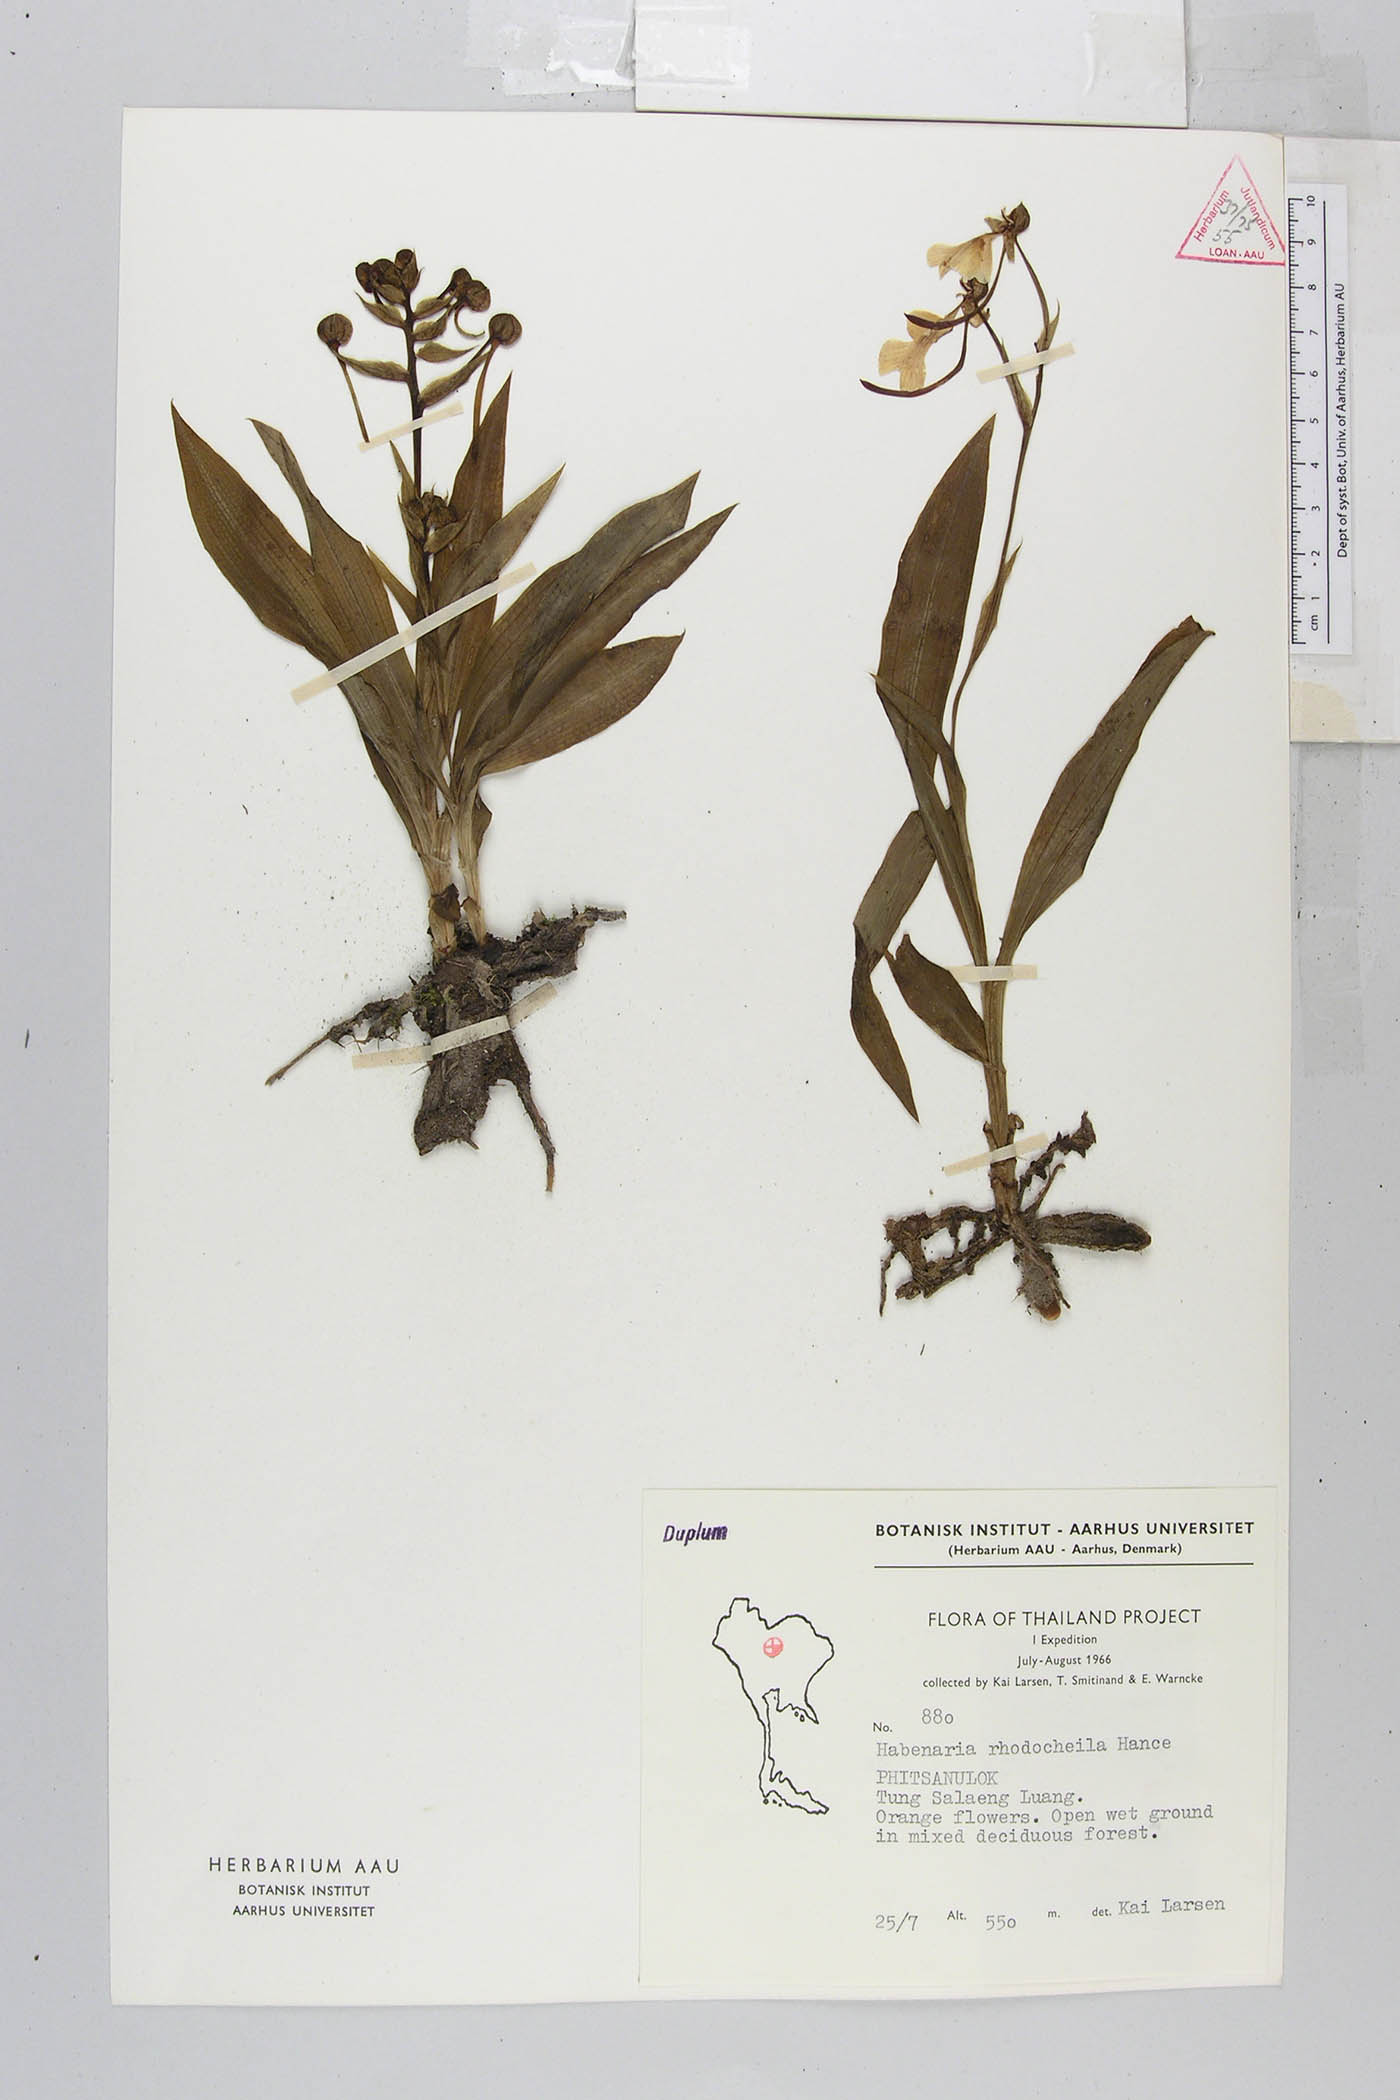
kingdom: Plantae
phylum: Tracheophyta
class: Liliopsida
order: Asparagales
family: Orchidaceae
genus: Habenaria
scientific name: Habenaria rhodocheila
